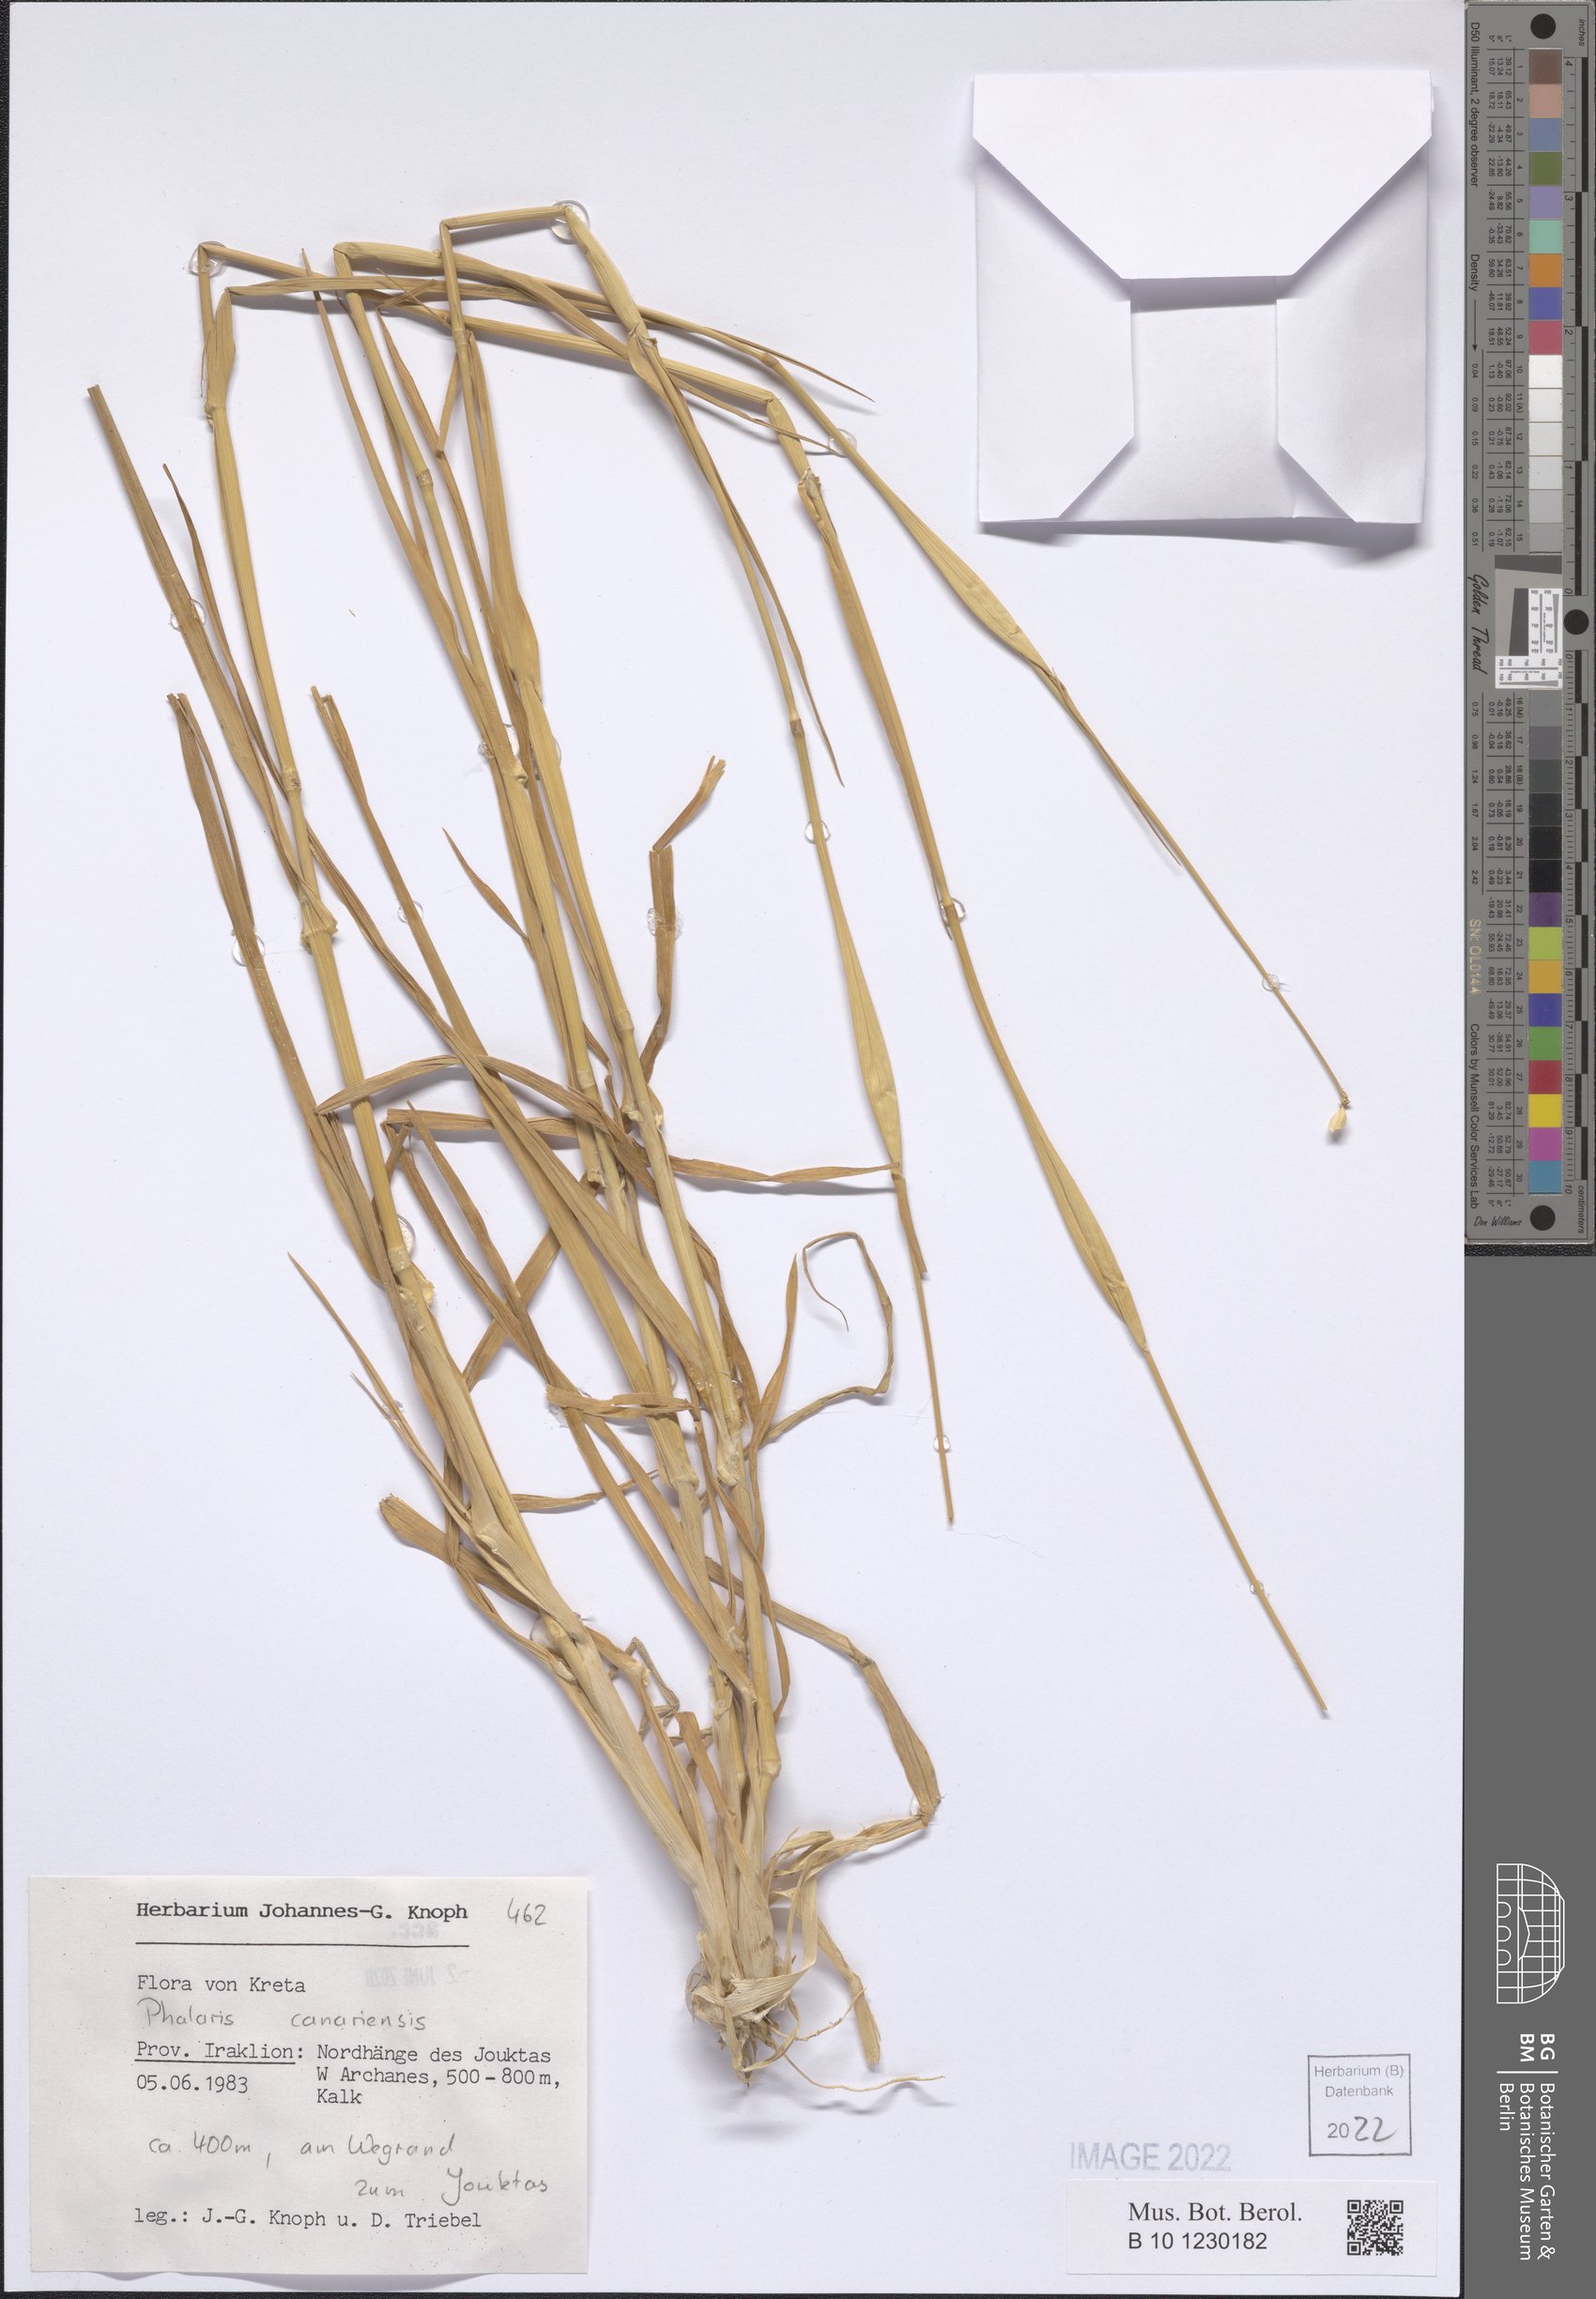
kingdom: Plantae
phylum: Tracheophyta
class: Liliopsida
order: Poales
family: Poaceae
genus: Phalaris
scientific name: Phalaris canariensis
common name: Annual canarygrass
